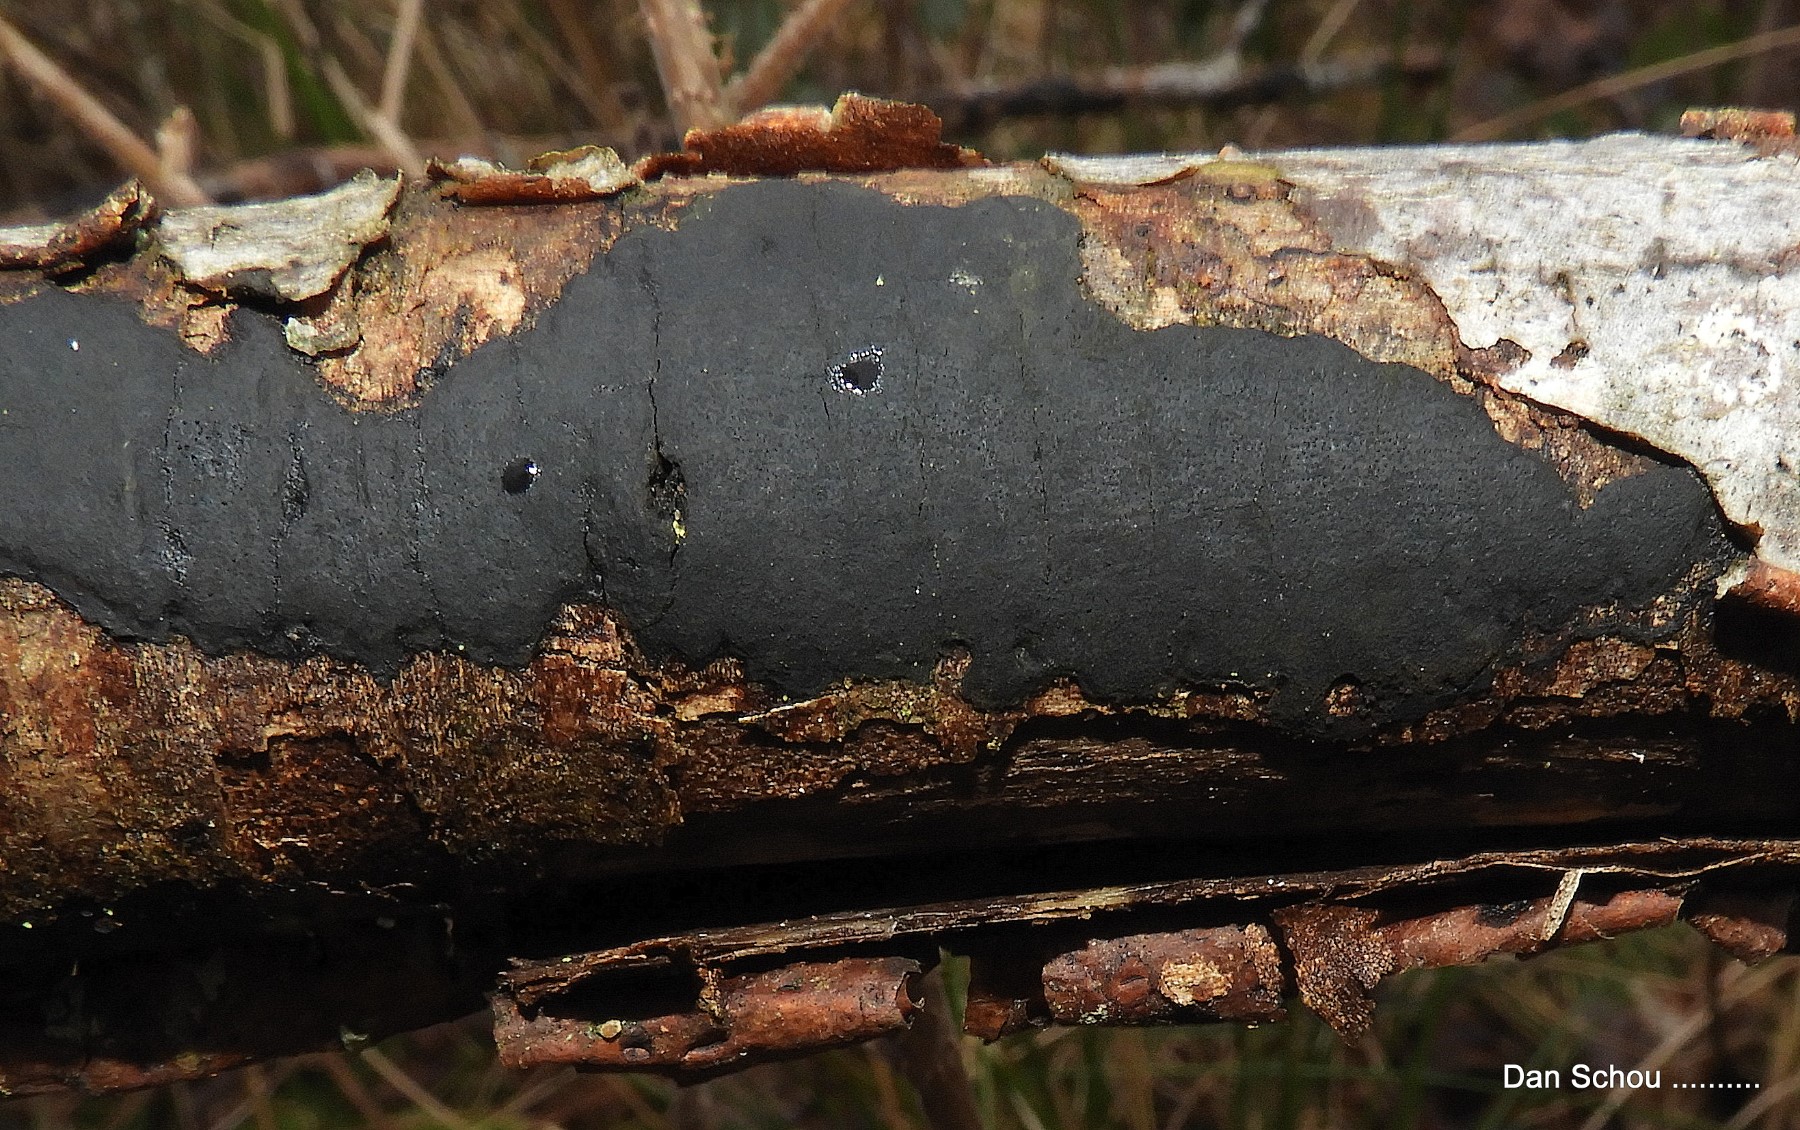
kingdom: Fungi
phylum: Ascomycota
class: Sordariomycetes
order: Xylariales
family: Diatrypaceae
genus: Diatrype
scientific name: Diatrype
